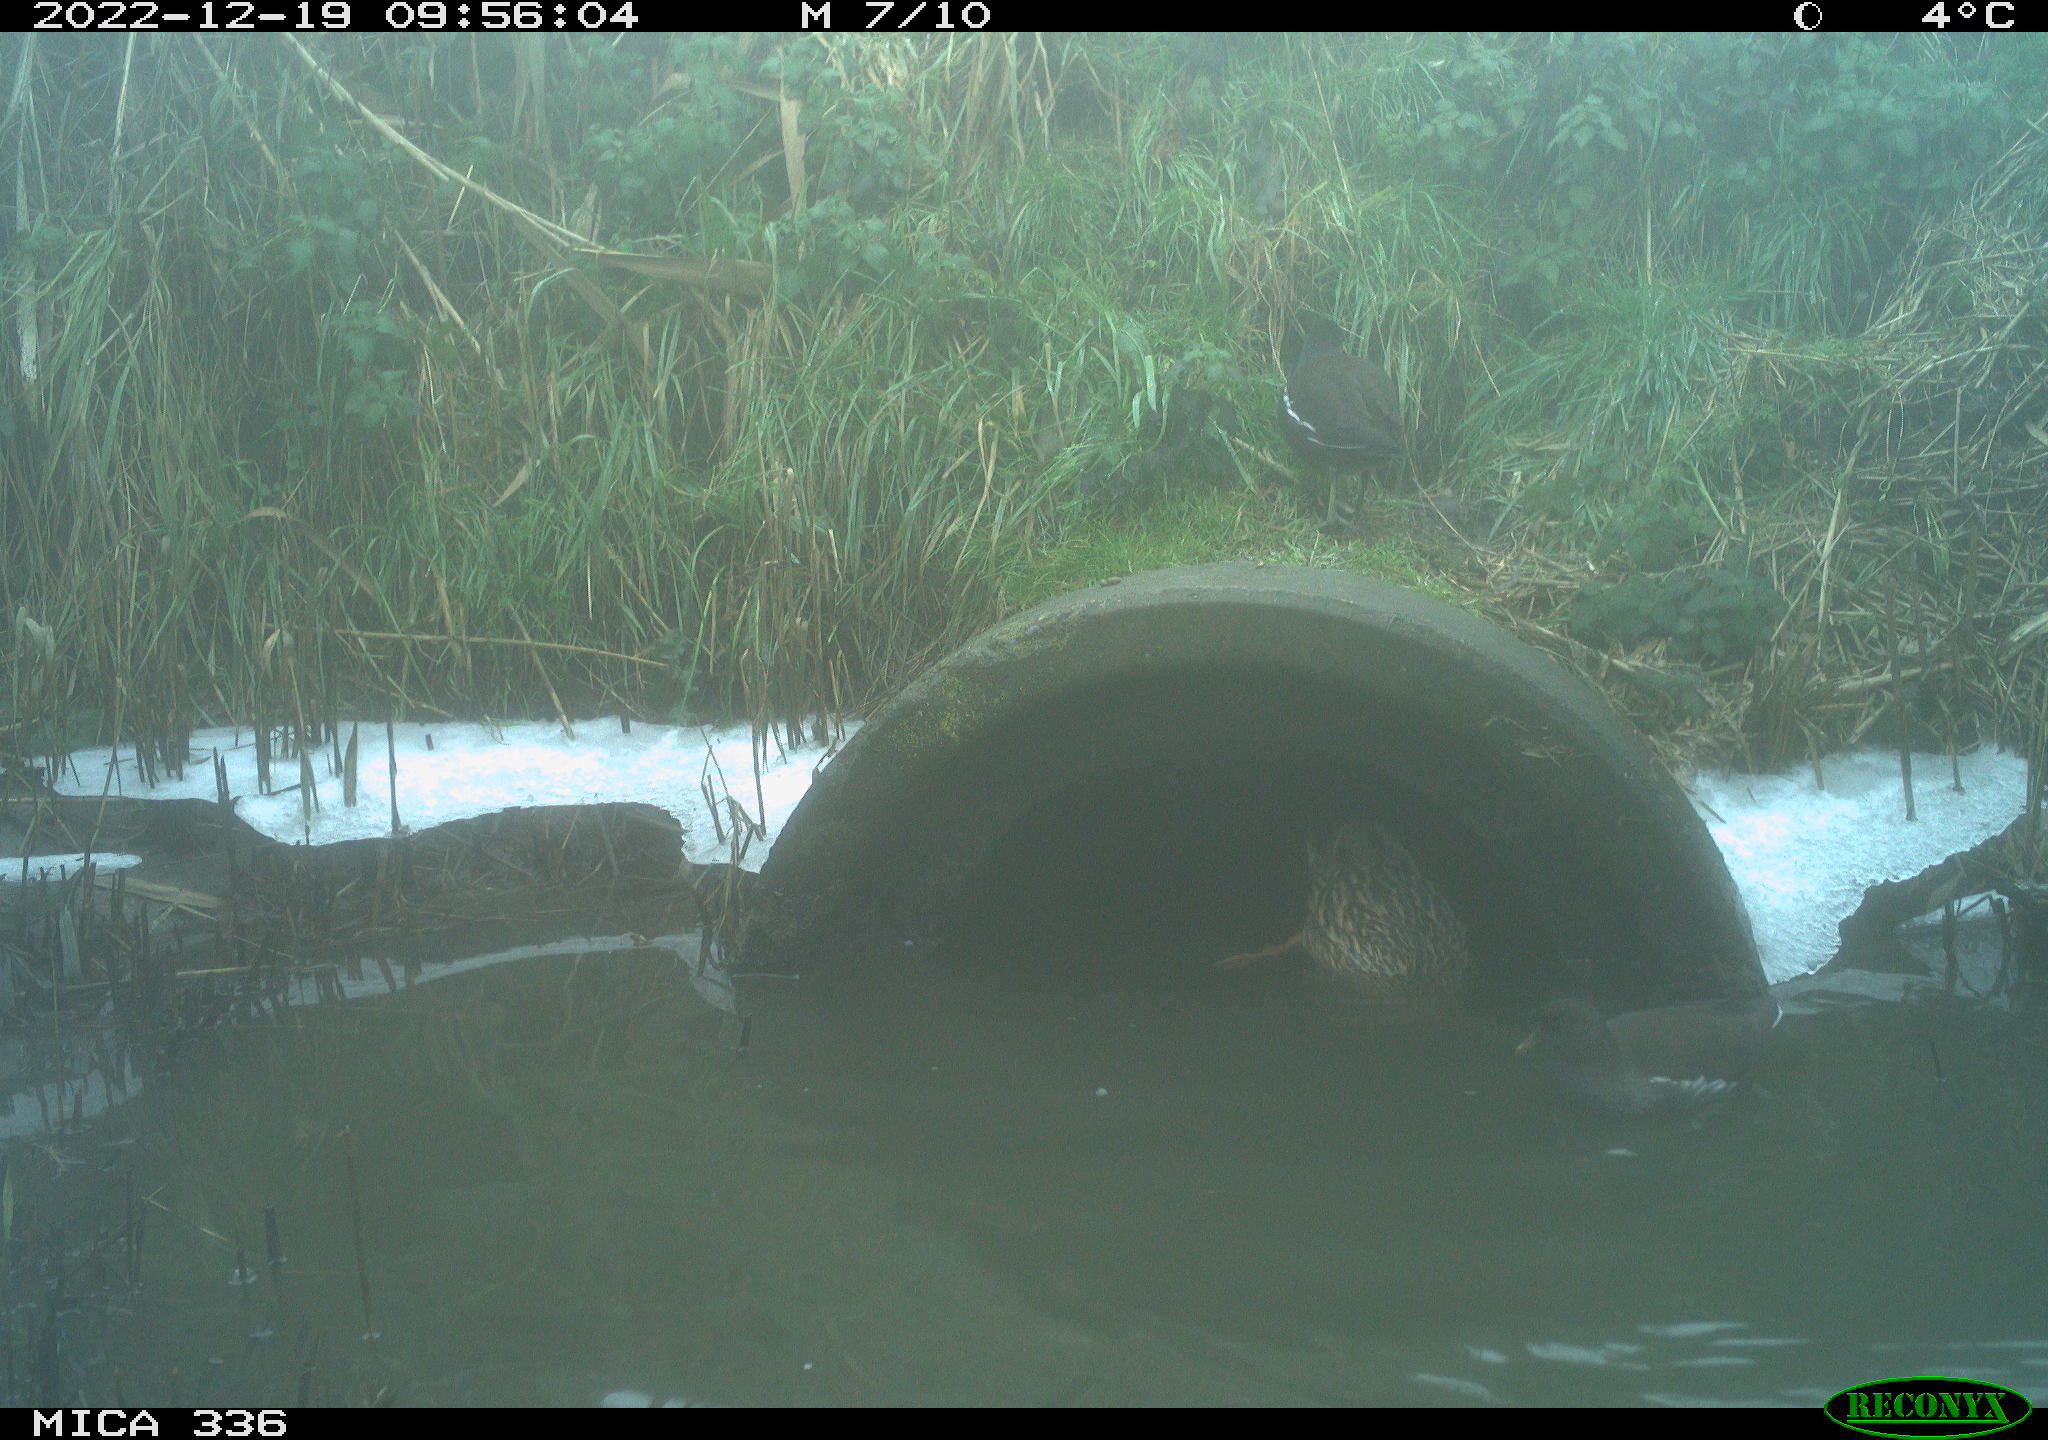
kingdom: Animalia
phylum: Chordata
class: Aves
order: Anseriformes
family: Anatidae
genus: Anas
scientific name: Anas
